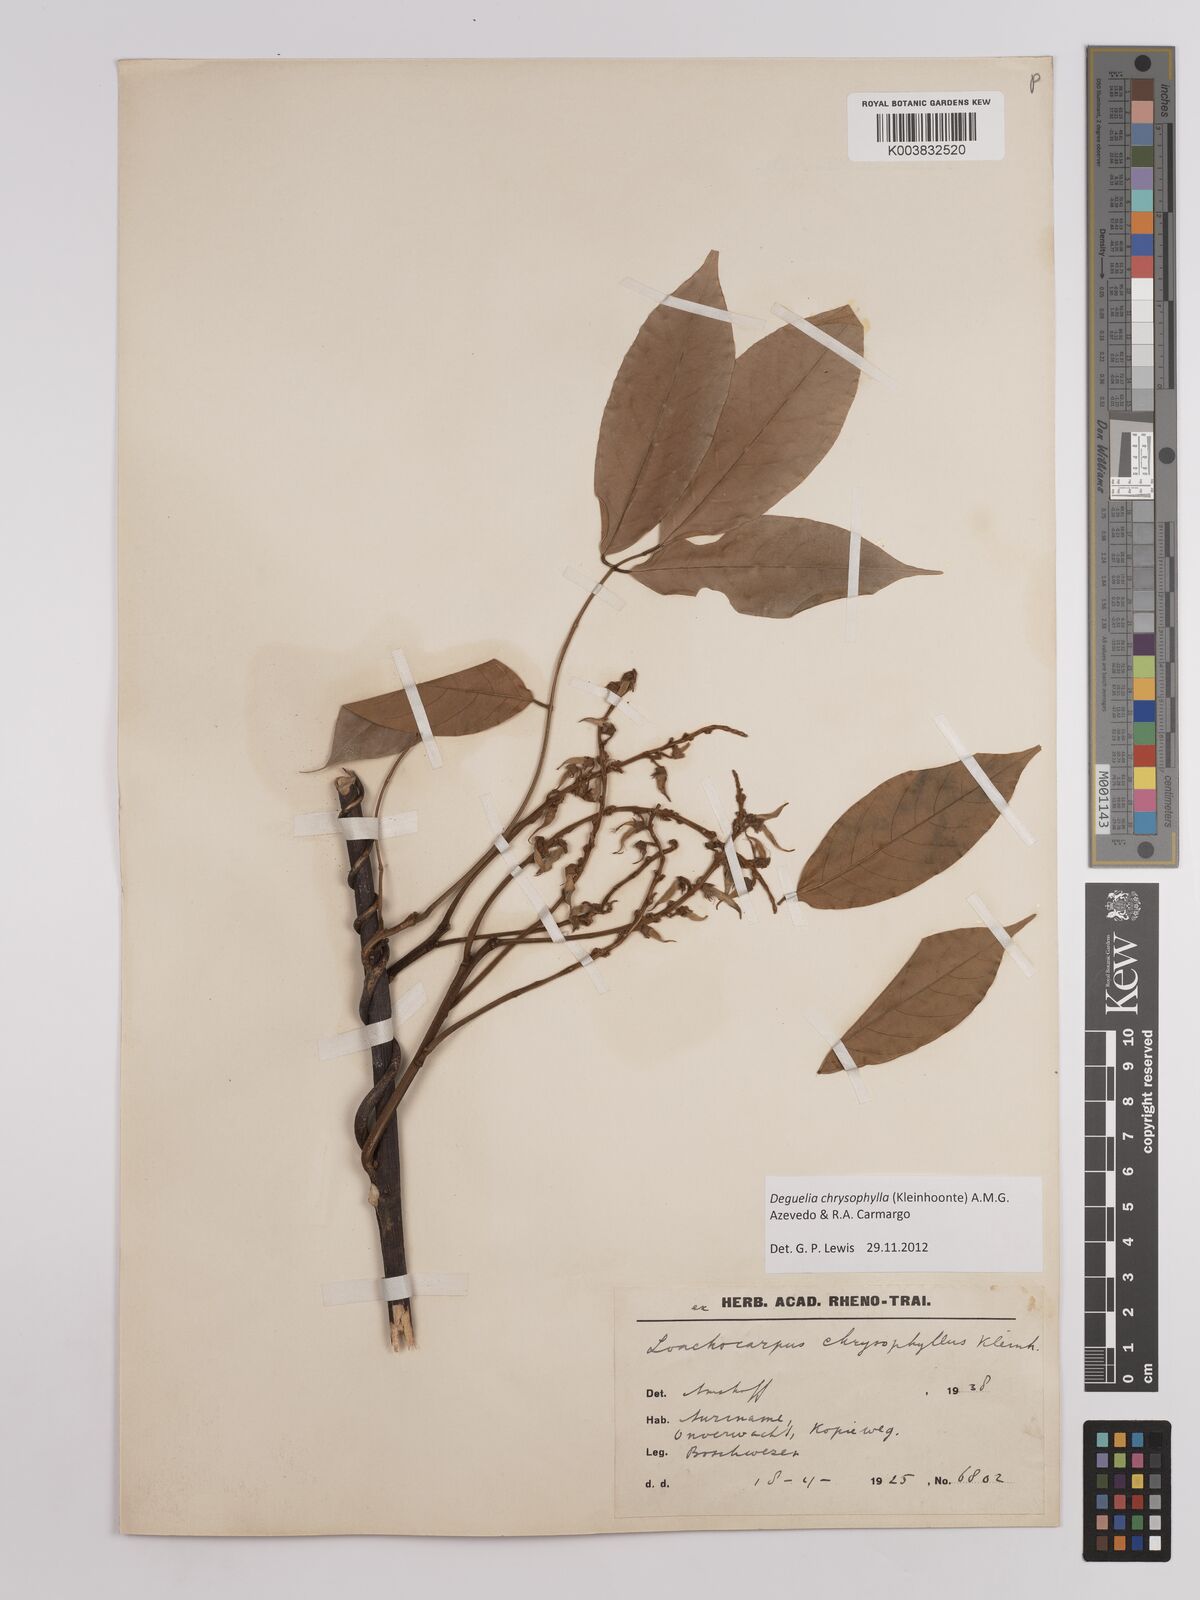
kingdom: Plantae
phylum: Tracheophyta
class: Magnoliopsida
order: Fabales
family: Fabaceae
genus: Deguelia
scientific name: Deguelia chrysophylla
